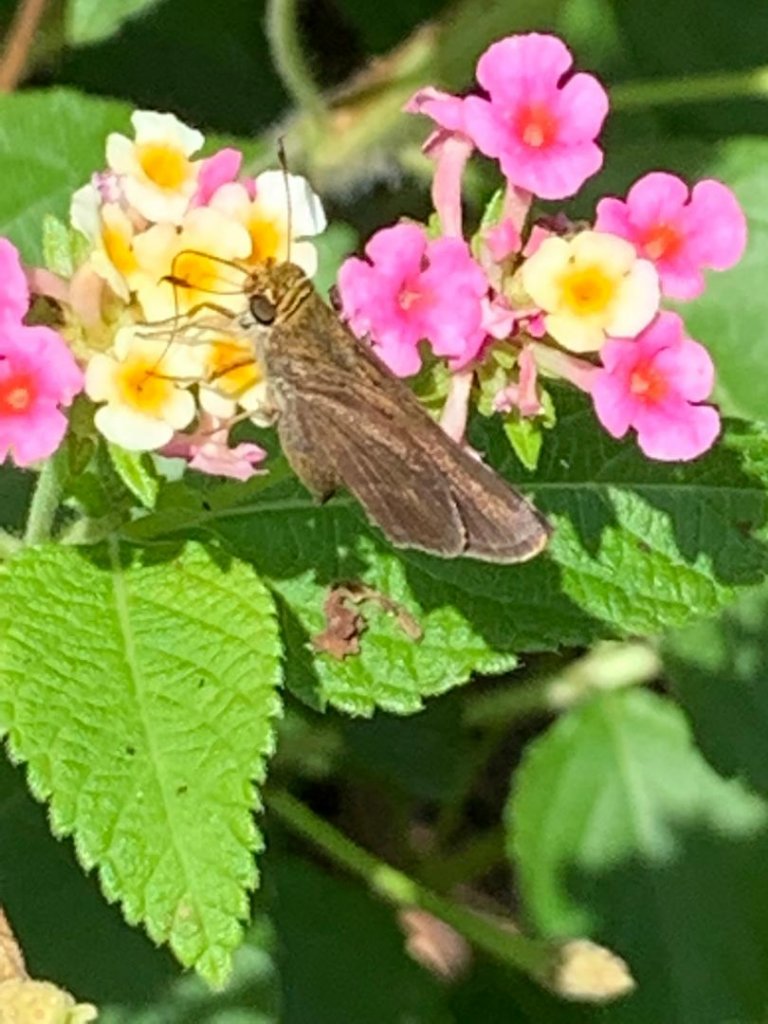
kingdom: Animalia
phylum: Arthropoda
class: Insecta
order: Lepidoptera
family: Hesperiidae
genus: Euphyes
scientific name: Euphyes vestris
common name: Dun Skipper
